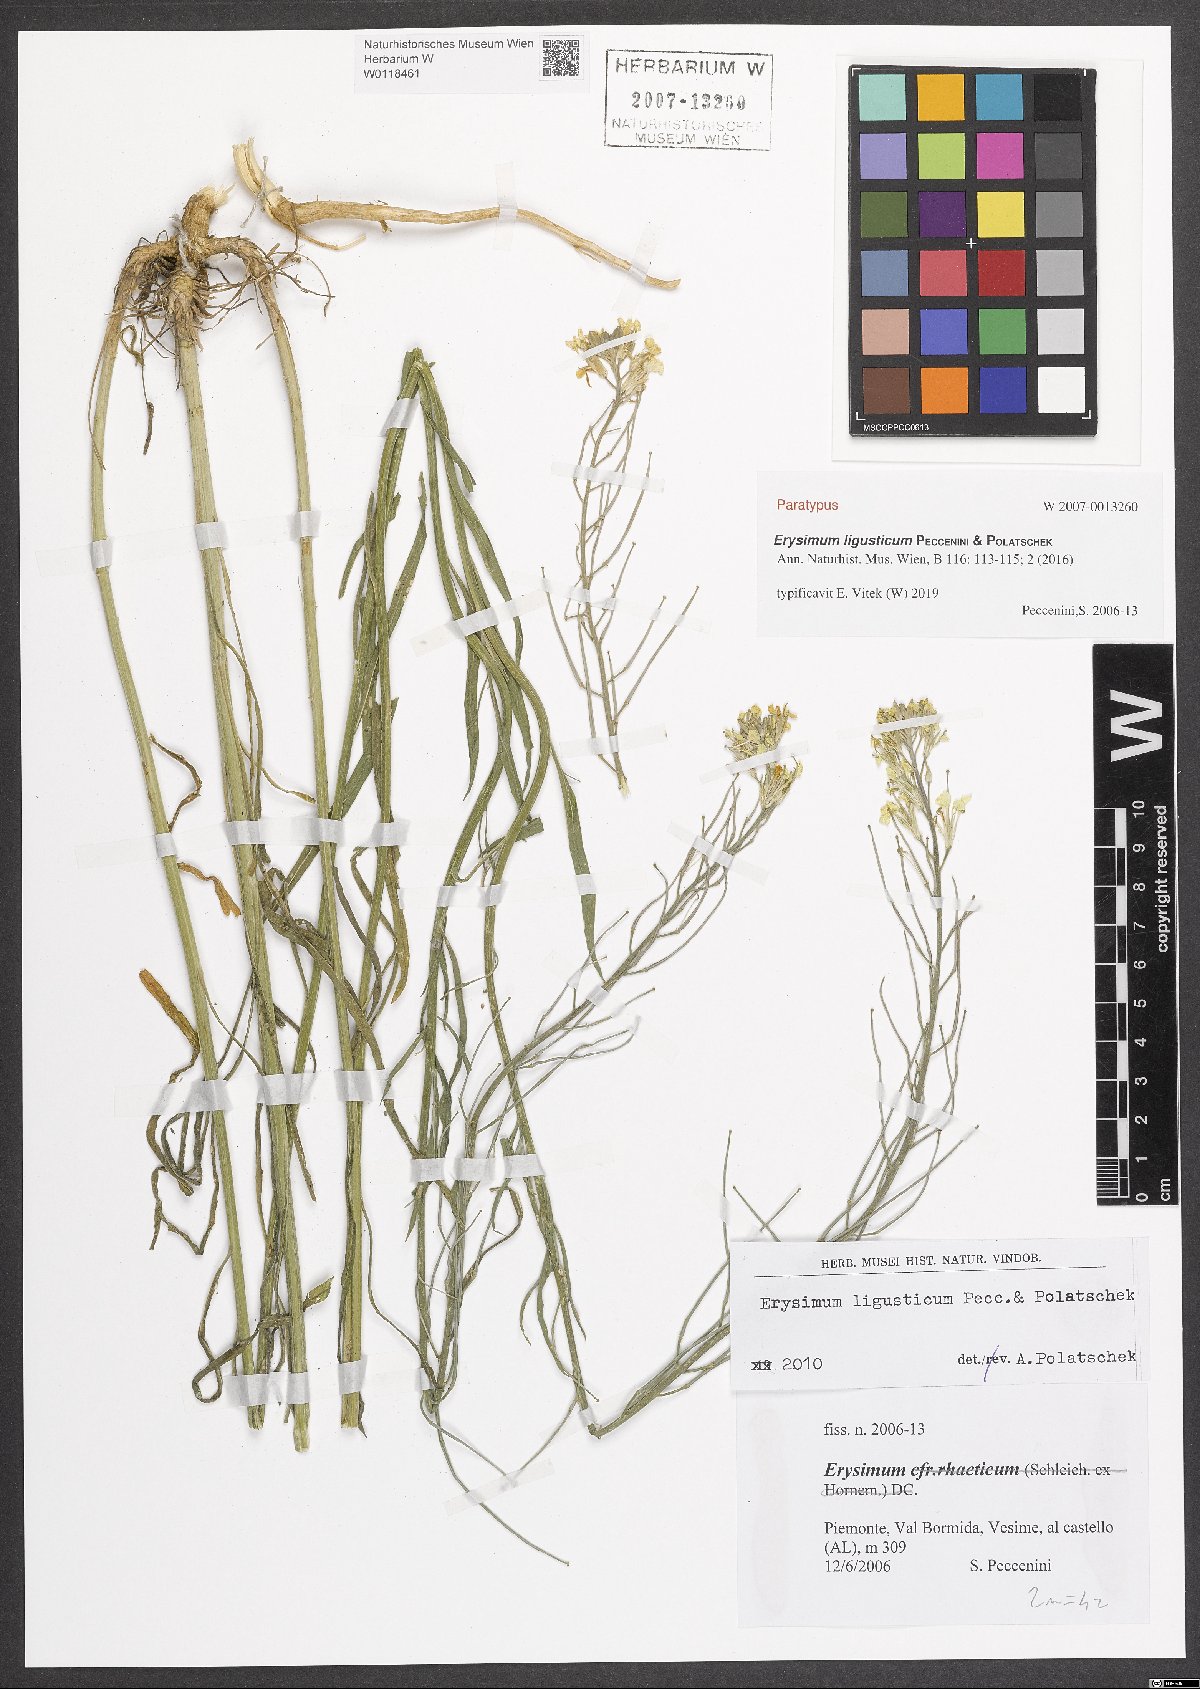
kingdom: Plantae
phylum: Tracheophyta
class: Magnoliopsida
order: Brassicales
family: Brassicaceae
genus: Erysimum
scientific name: Erysimum ligusticum
